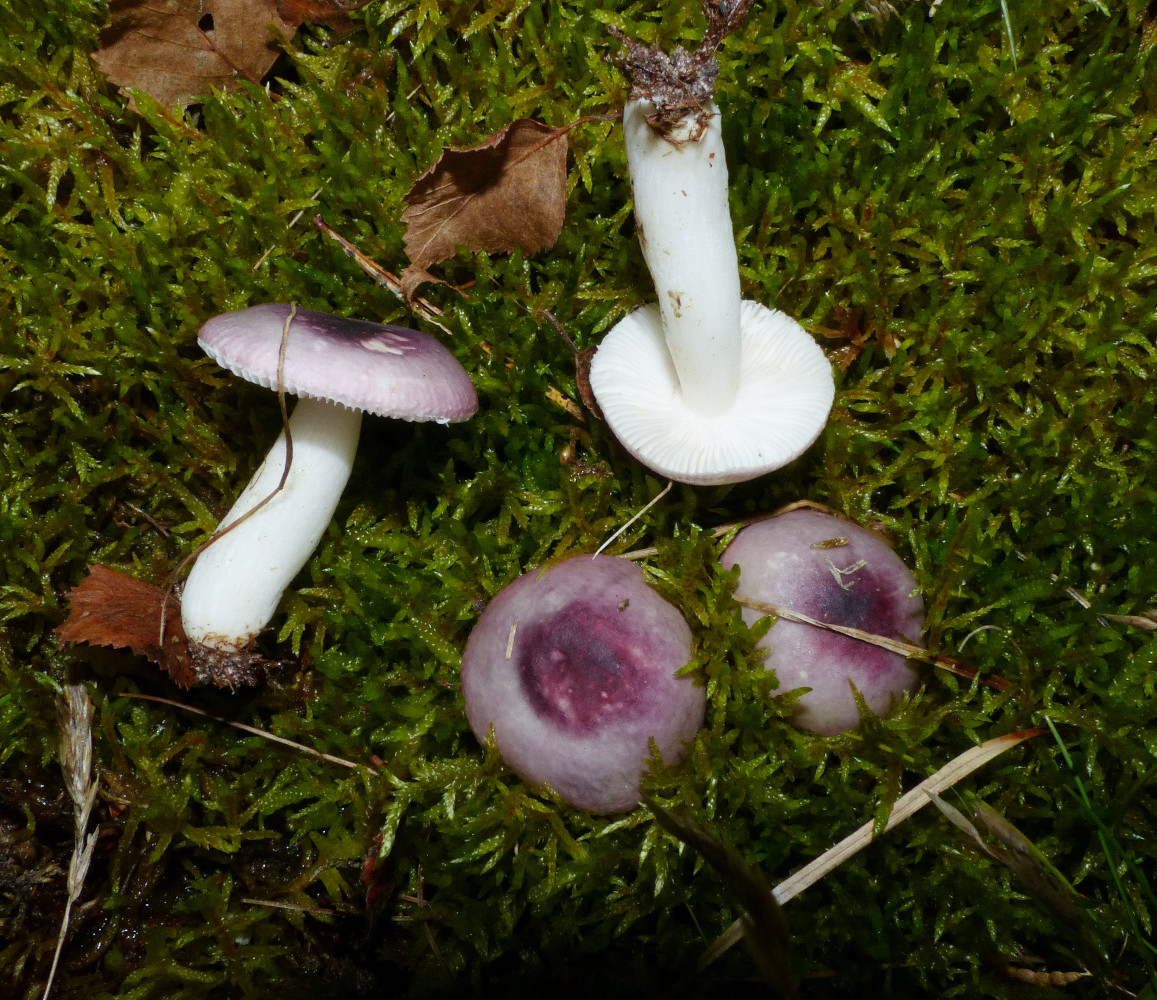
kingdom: Fungi
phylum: Basidiomycota
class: Agaricomycetes
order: Russulales
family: Russulaceae
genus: Russula
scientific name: Russula fragilis
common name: savbladet skørhat
